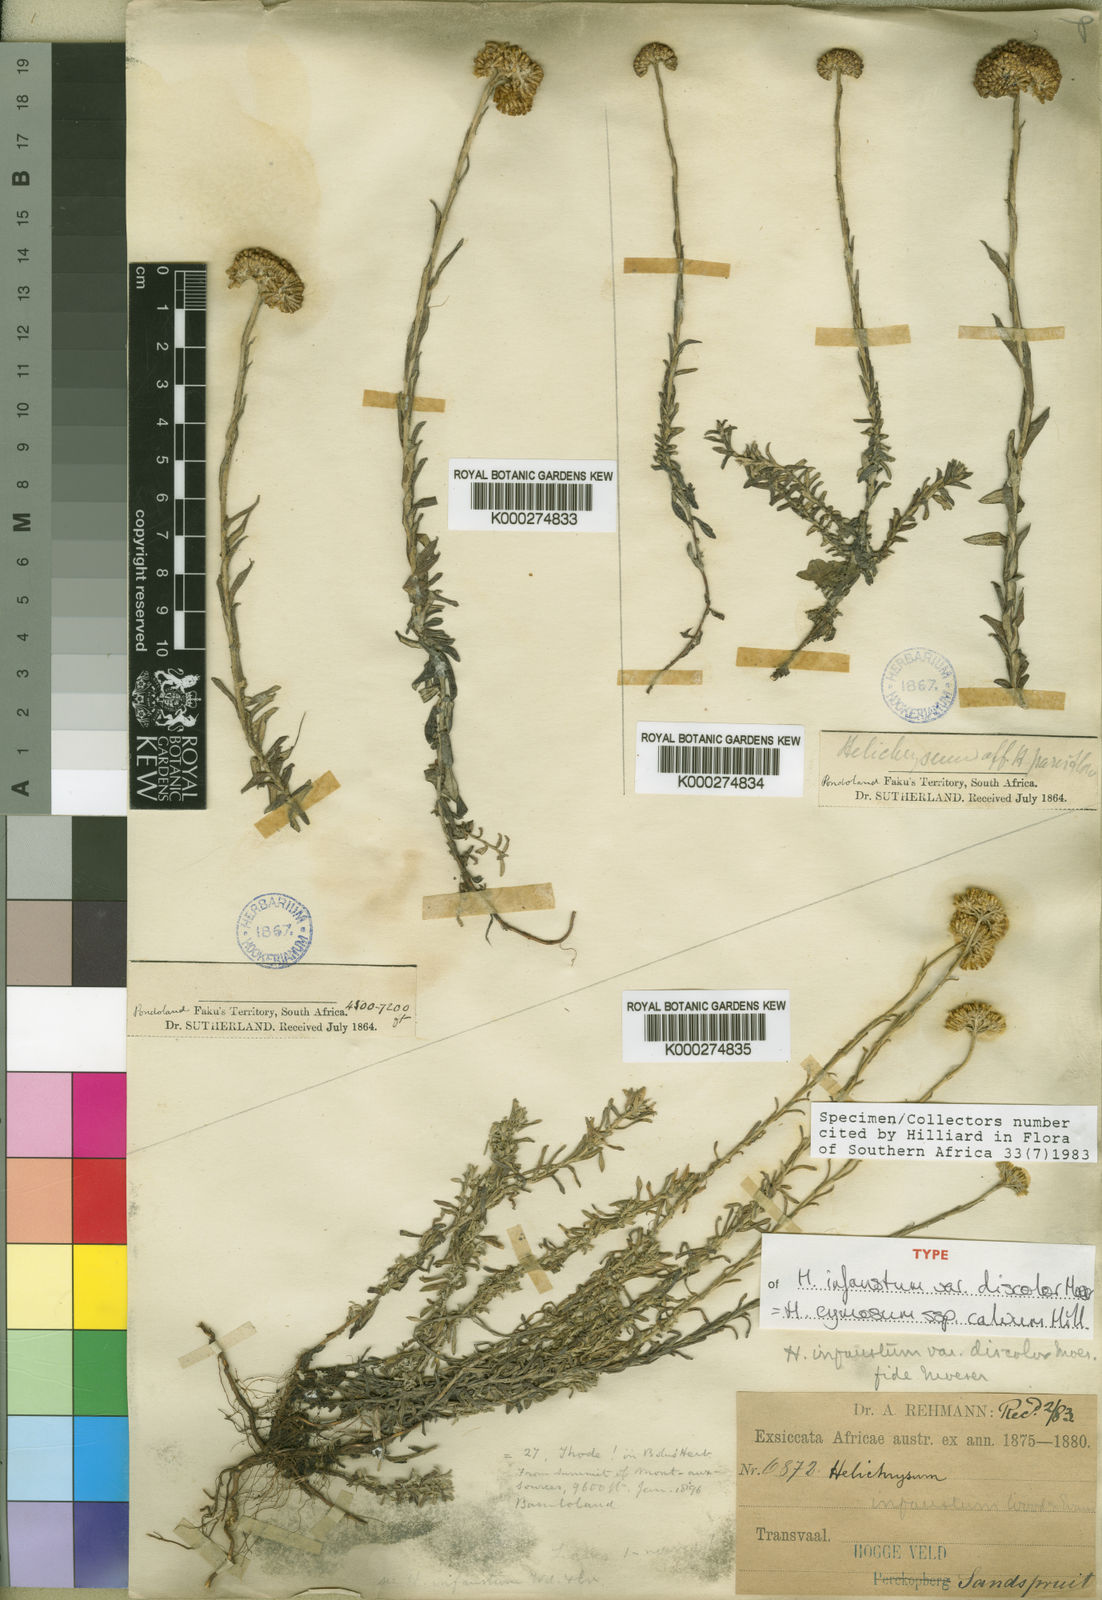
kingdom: Plantae
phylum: Tracheophyta
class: Magnoliopsida
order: Asterales
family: Asteraceae
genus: Helichrysum
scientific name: Helichrysum cymosum
